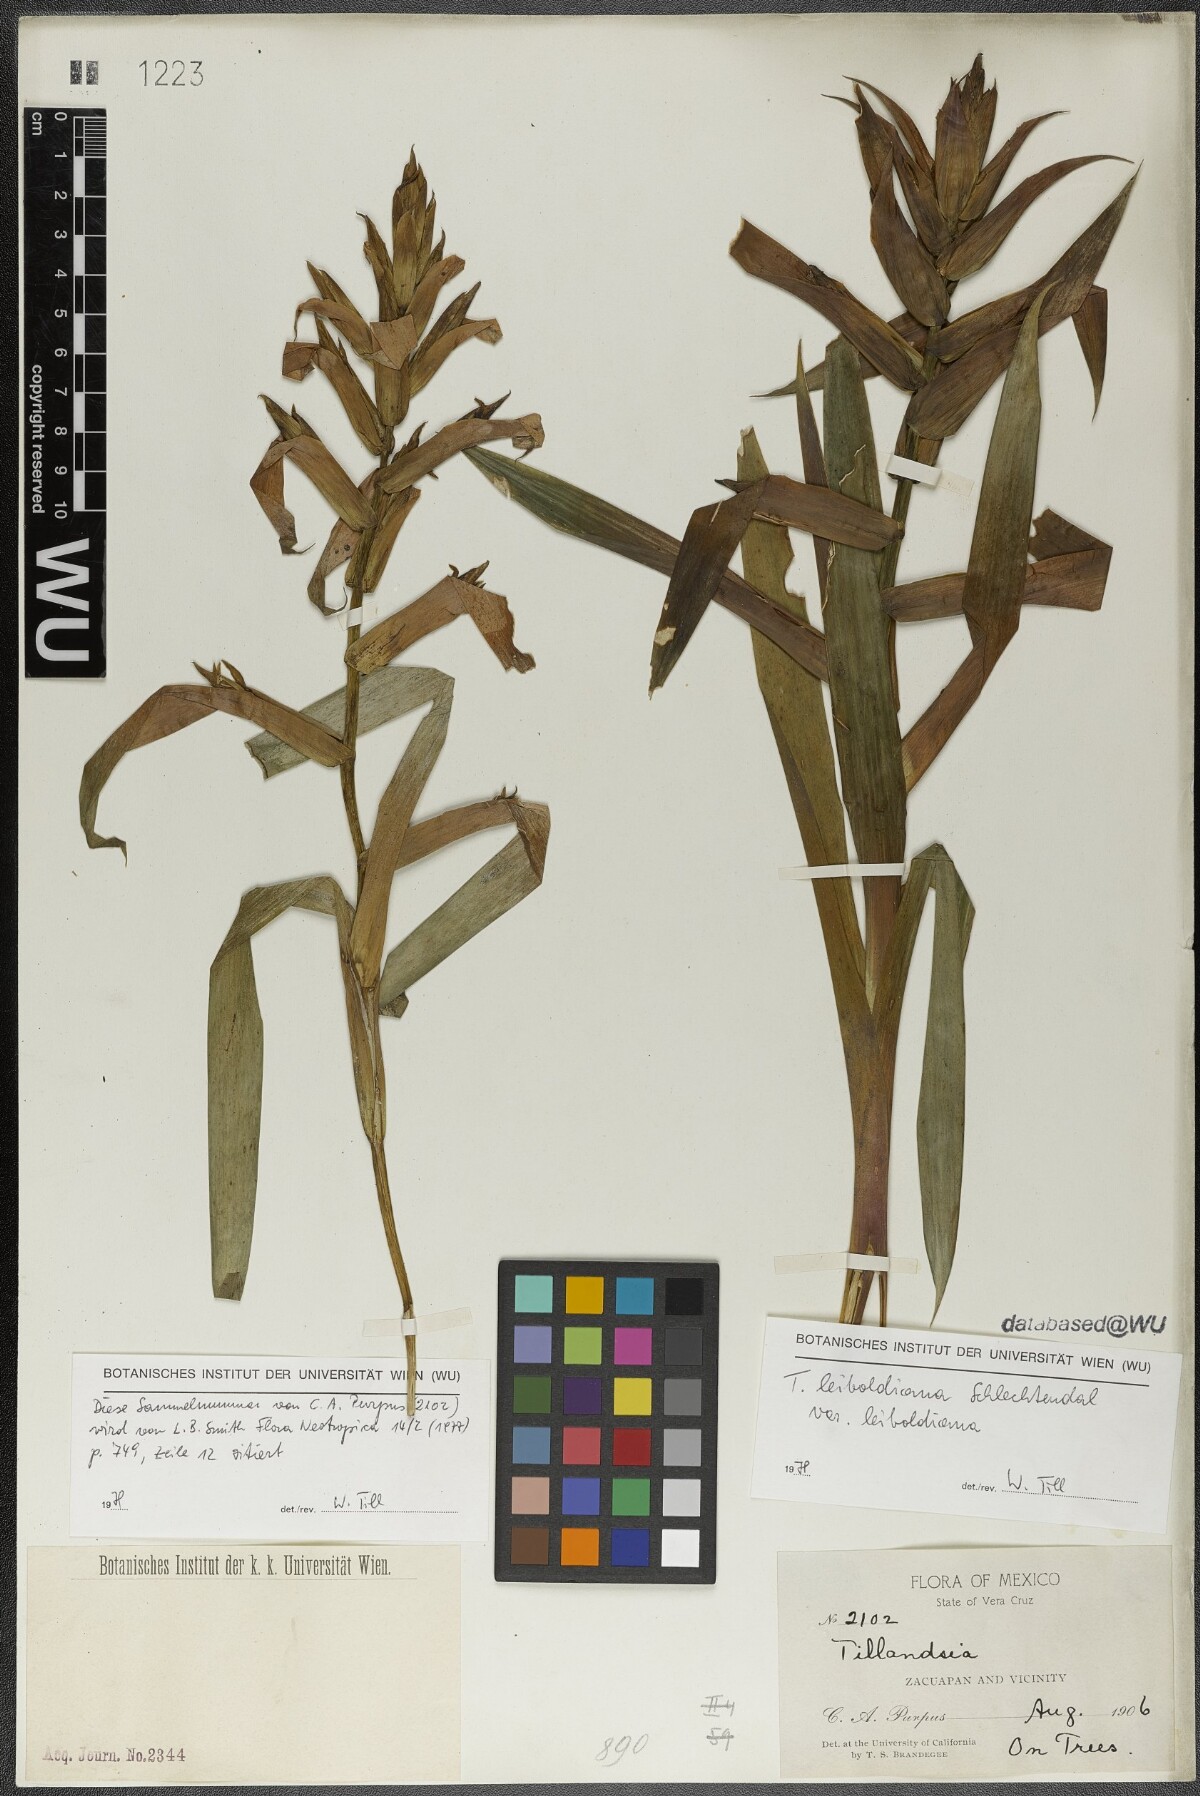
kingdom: Plantae
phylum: Tracheophyta
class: Liliopsida
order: Poales
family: Bromeliaceae
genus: Tillandsia
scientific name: Tillandsia leiboldiana
